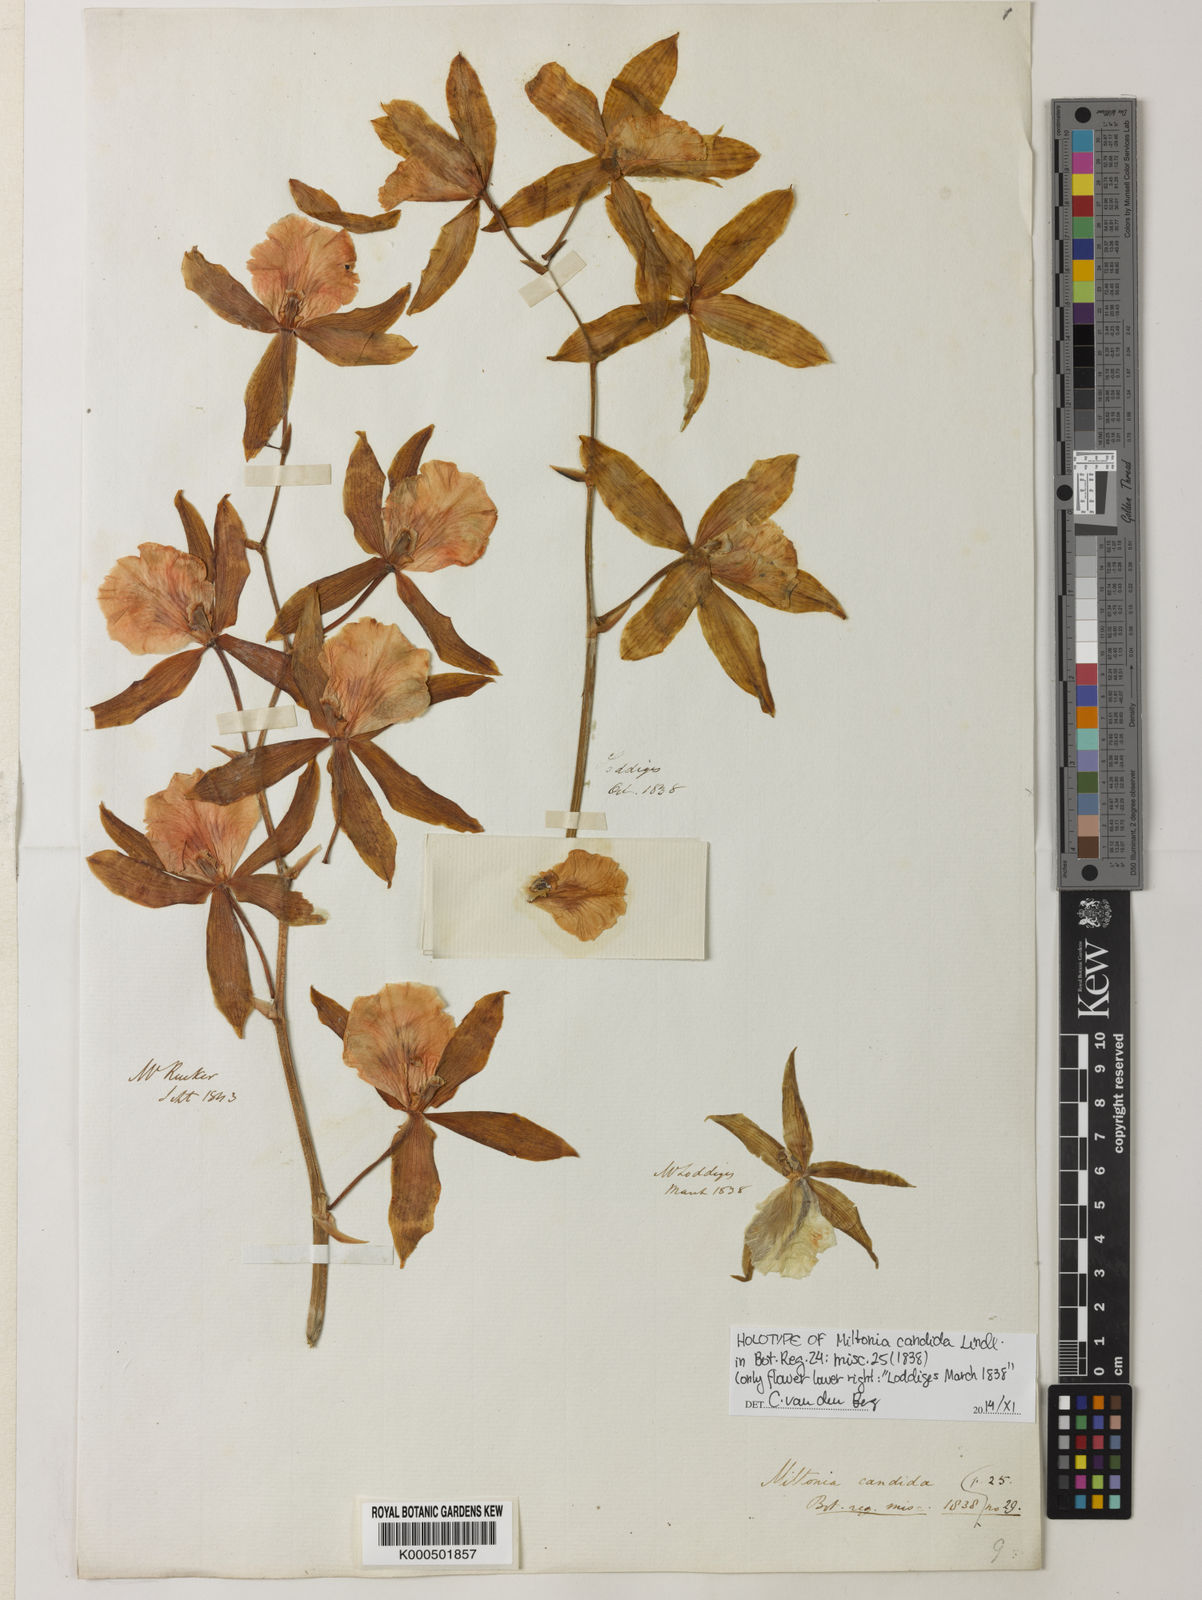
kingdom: Plantae
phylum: Tracheophyta
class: Liliopsida
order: Asparagales
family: Orchidaceae
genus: Miltonia
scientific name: Miltonia candida
